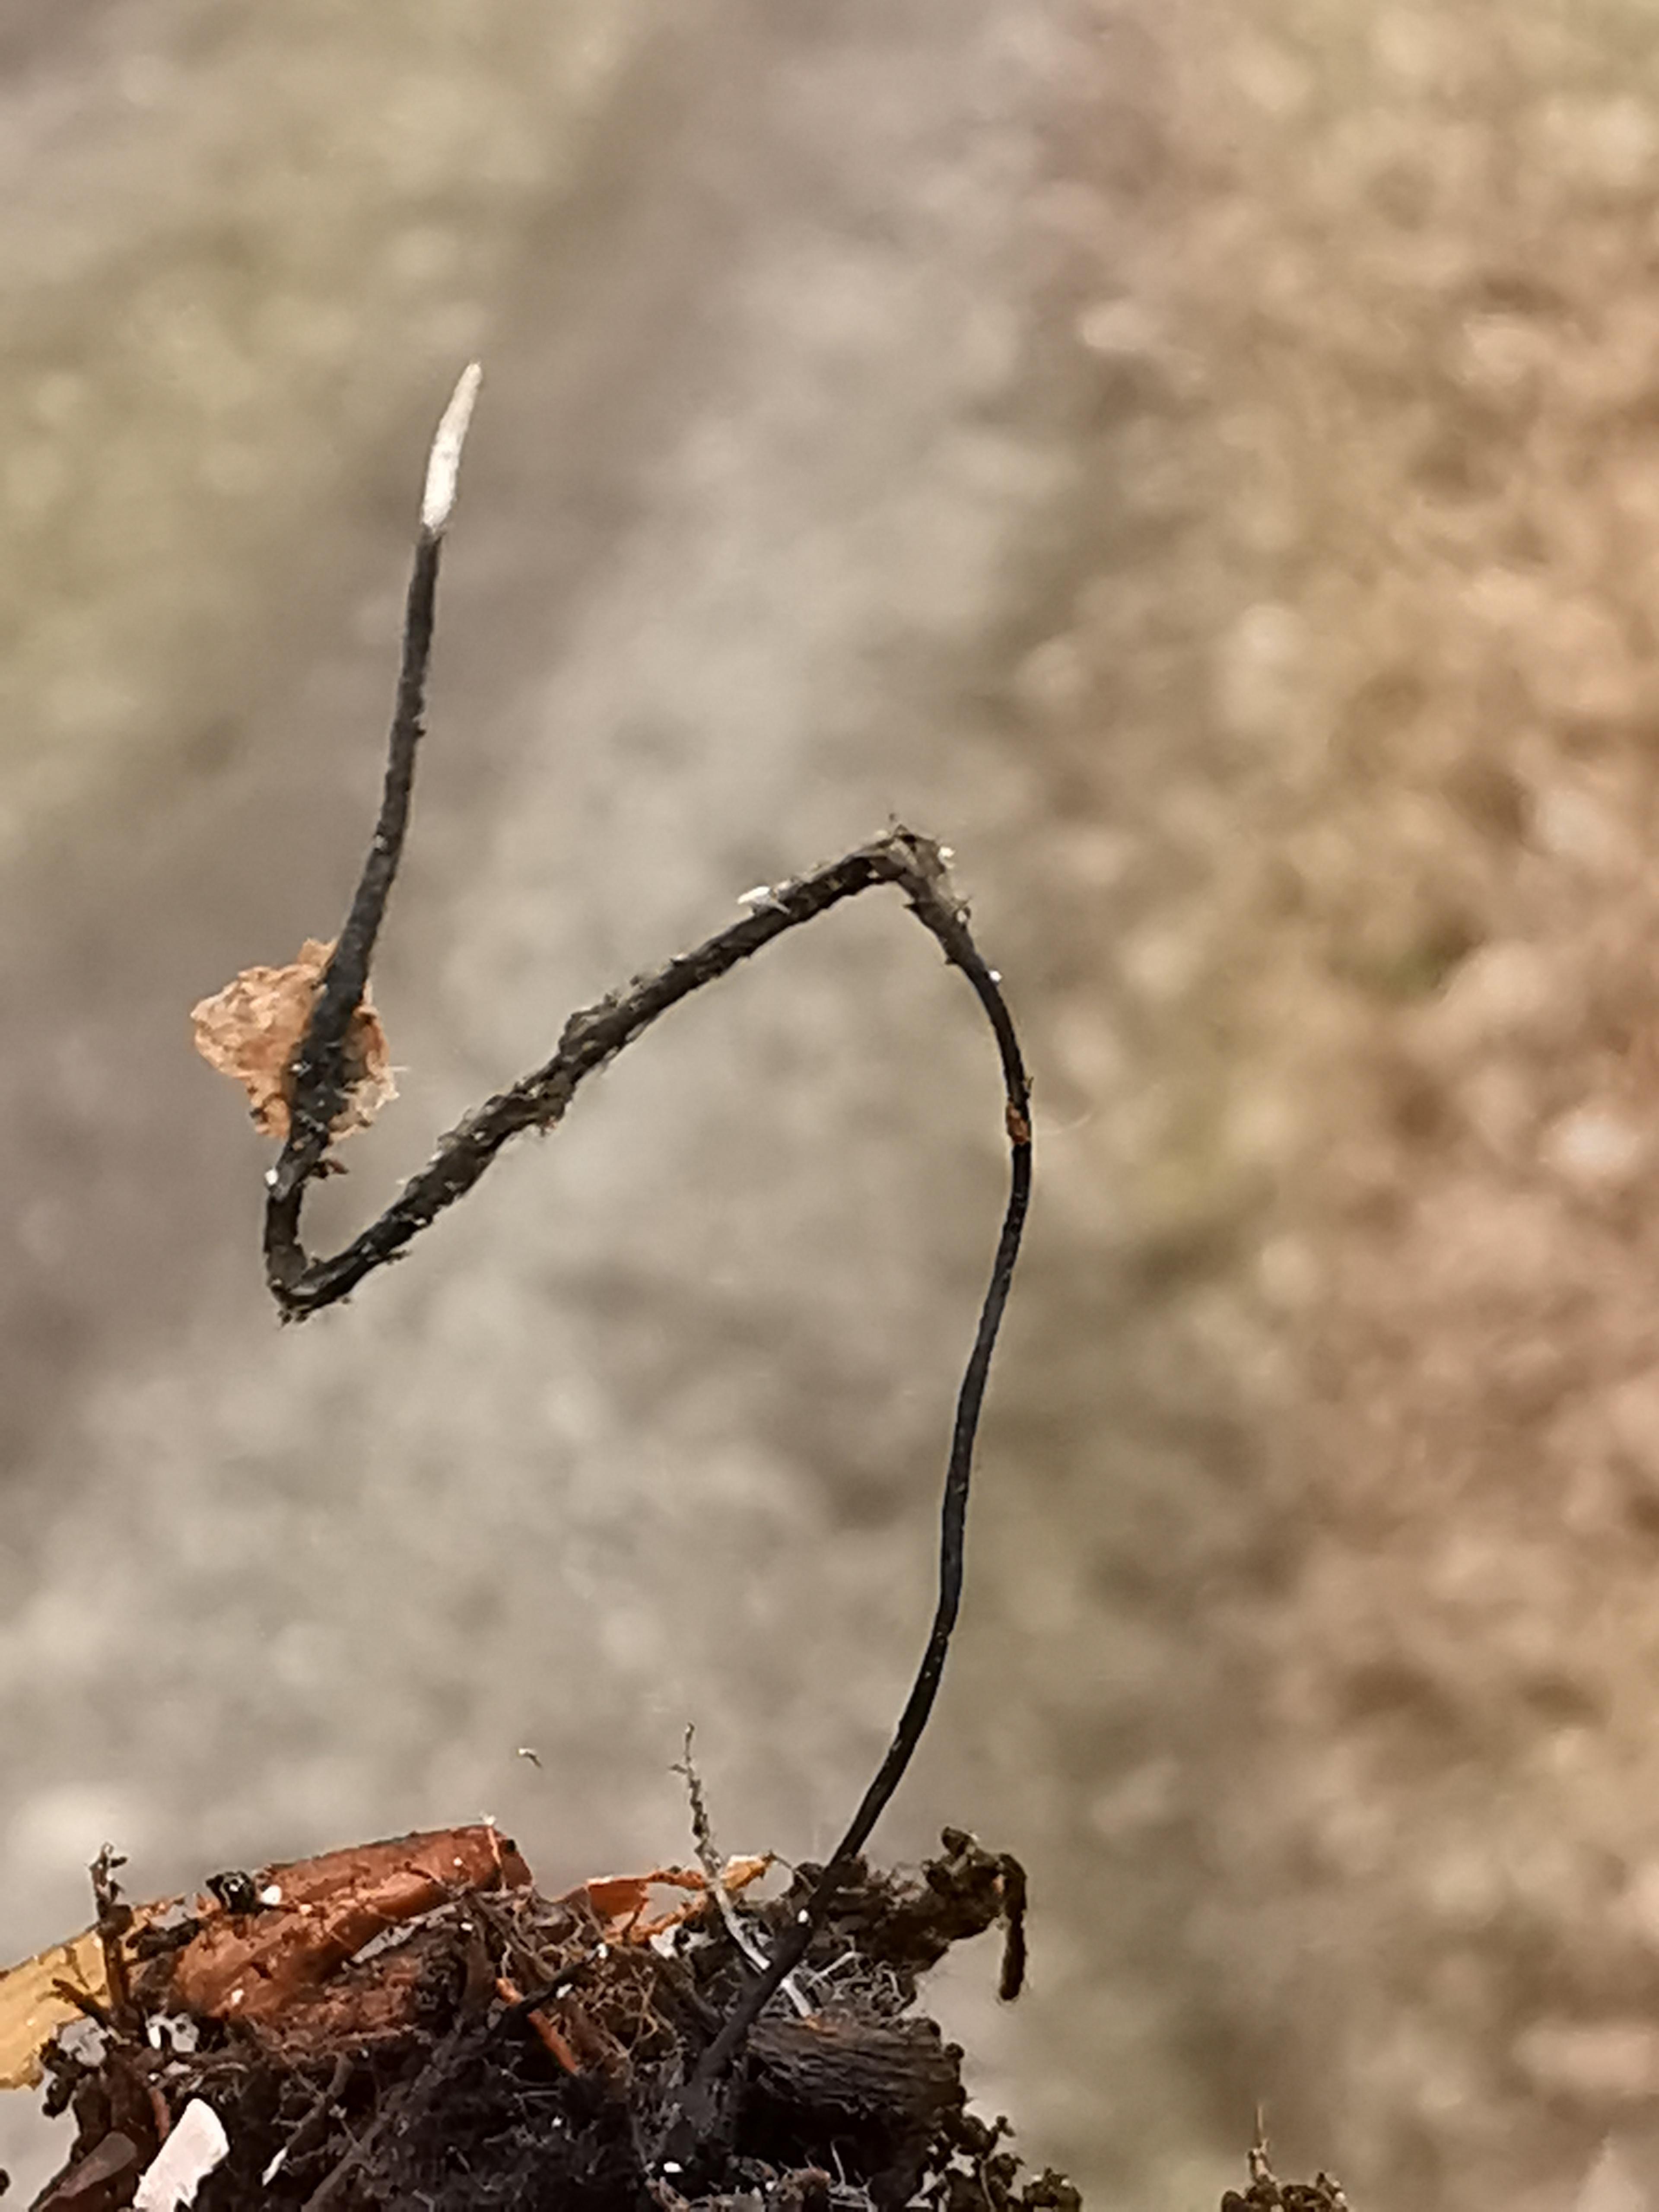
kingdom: Fungi
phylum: Ascomycota
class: Sordariomycetes
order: Xylariales
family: Xylariaceae
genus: Xylaria
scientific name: Xylaria carpophila
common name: bogskål-stødsvamp
